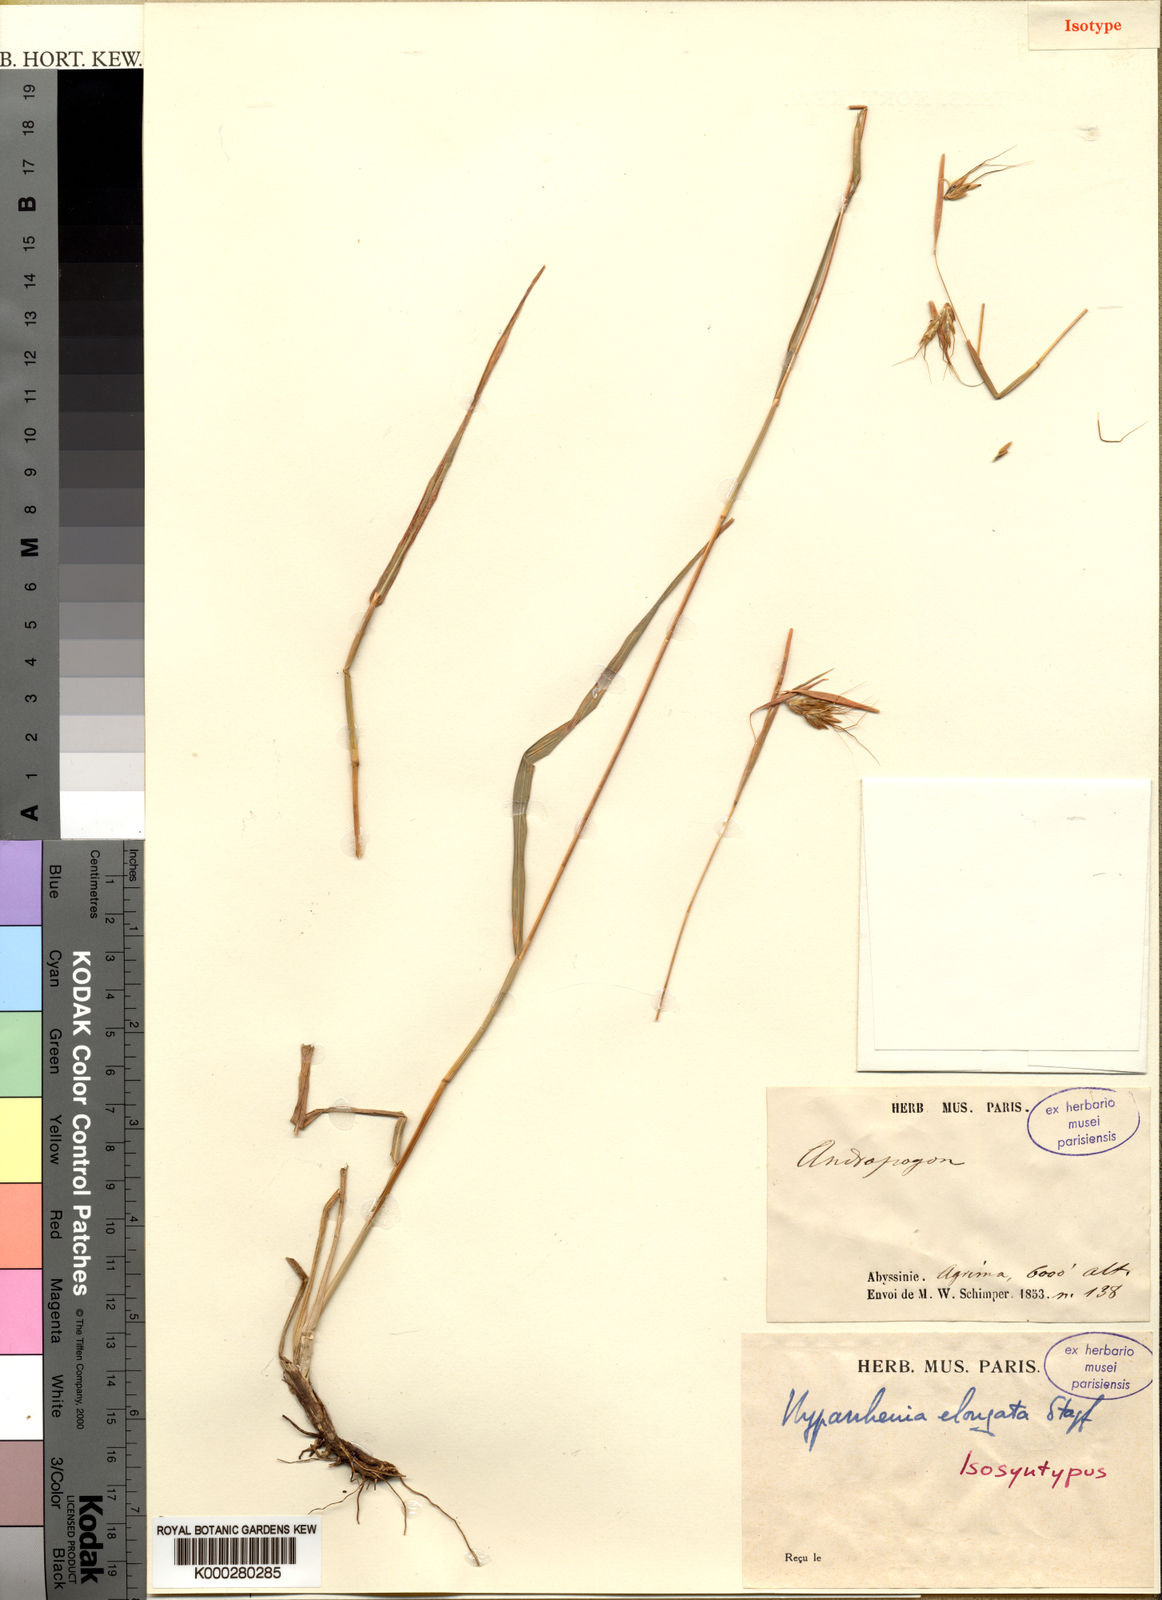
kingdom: Plantae
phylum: Tracheophyta
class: Liliopsida
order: Poales
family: Poaceae
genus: Hyparrhenia
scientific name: Hyparrhenia dregeana
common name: Silky thatching grass
